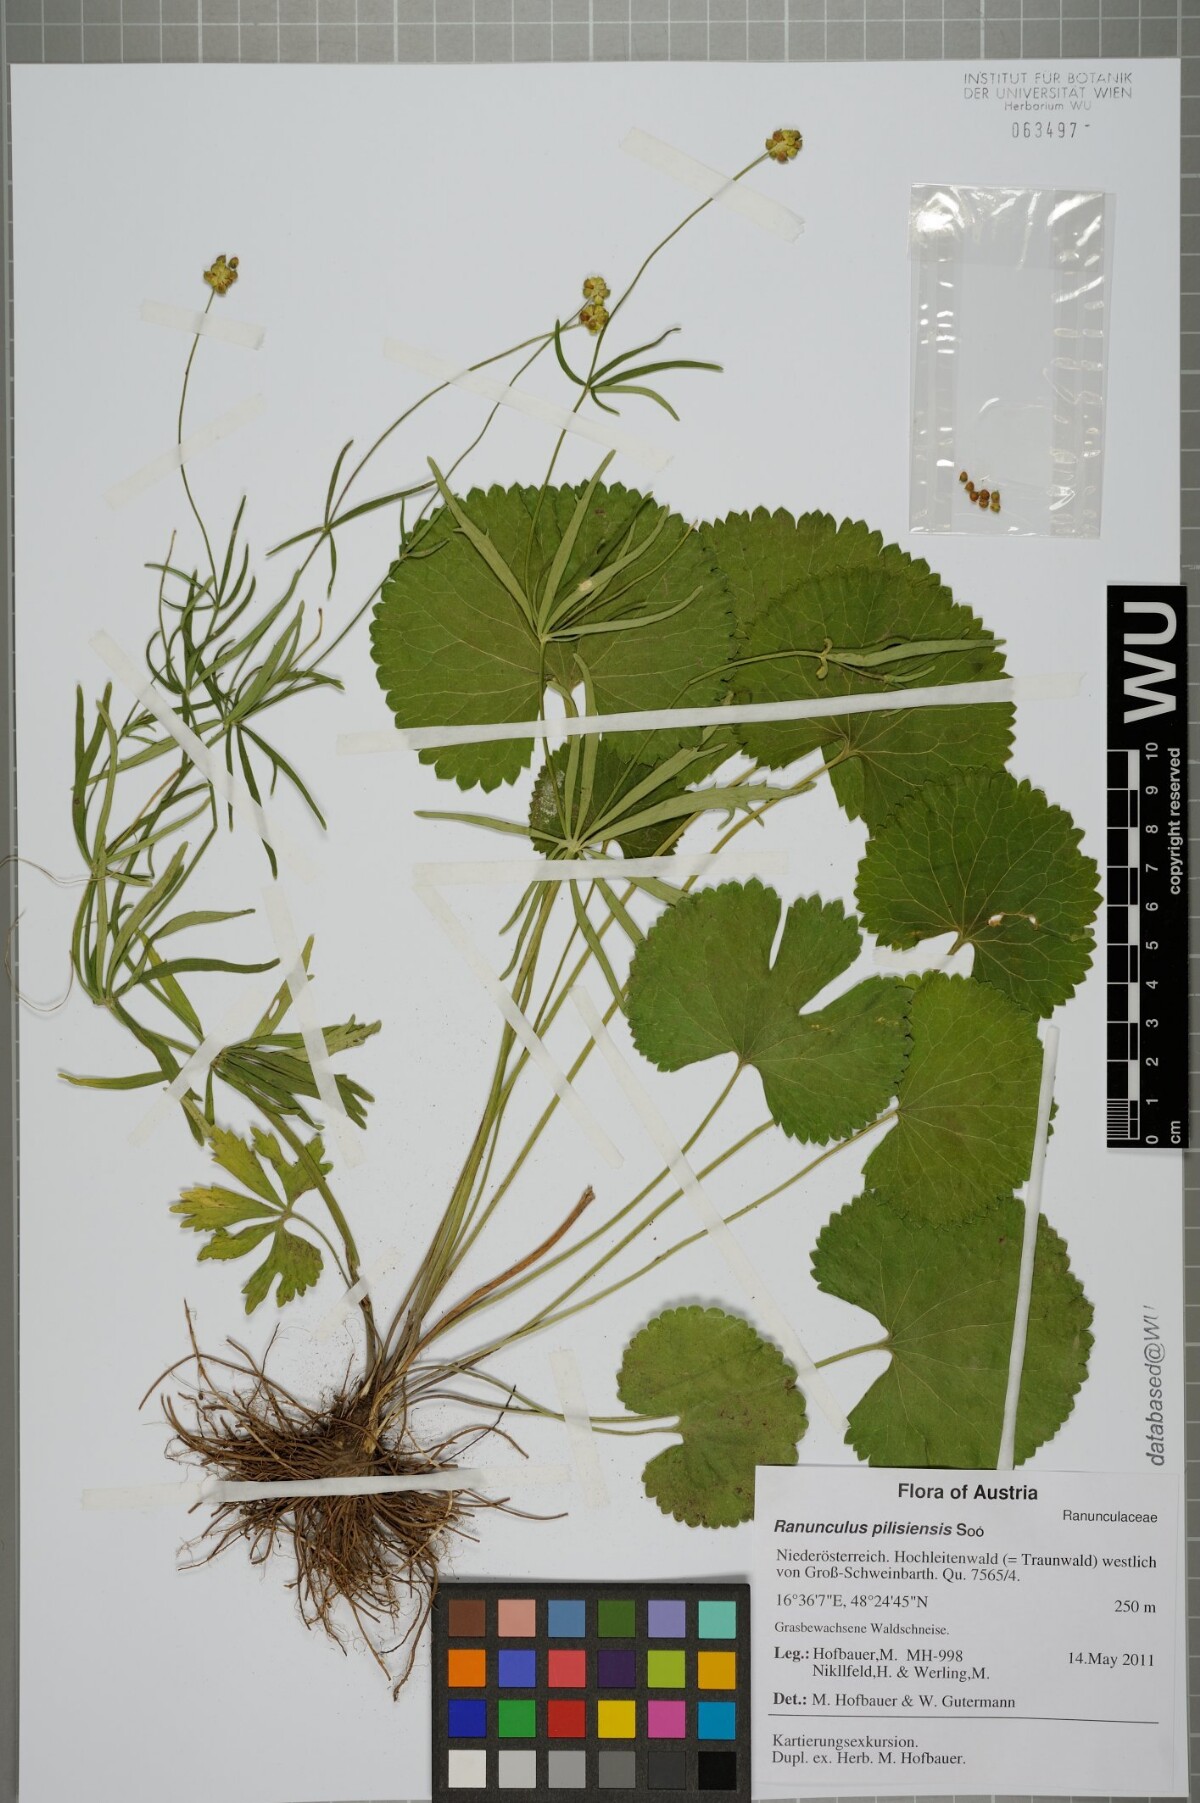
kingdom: Plantae
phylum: Tracheophyta
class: Magnoliopsida
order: Ranunculales
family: Ranunculaceae
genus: Ranunculus
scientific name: Ranunculus pilisiensis
